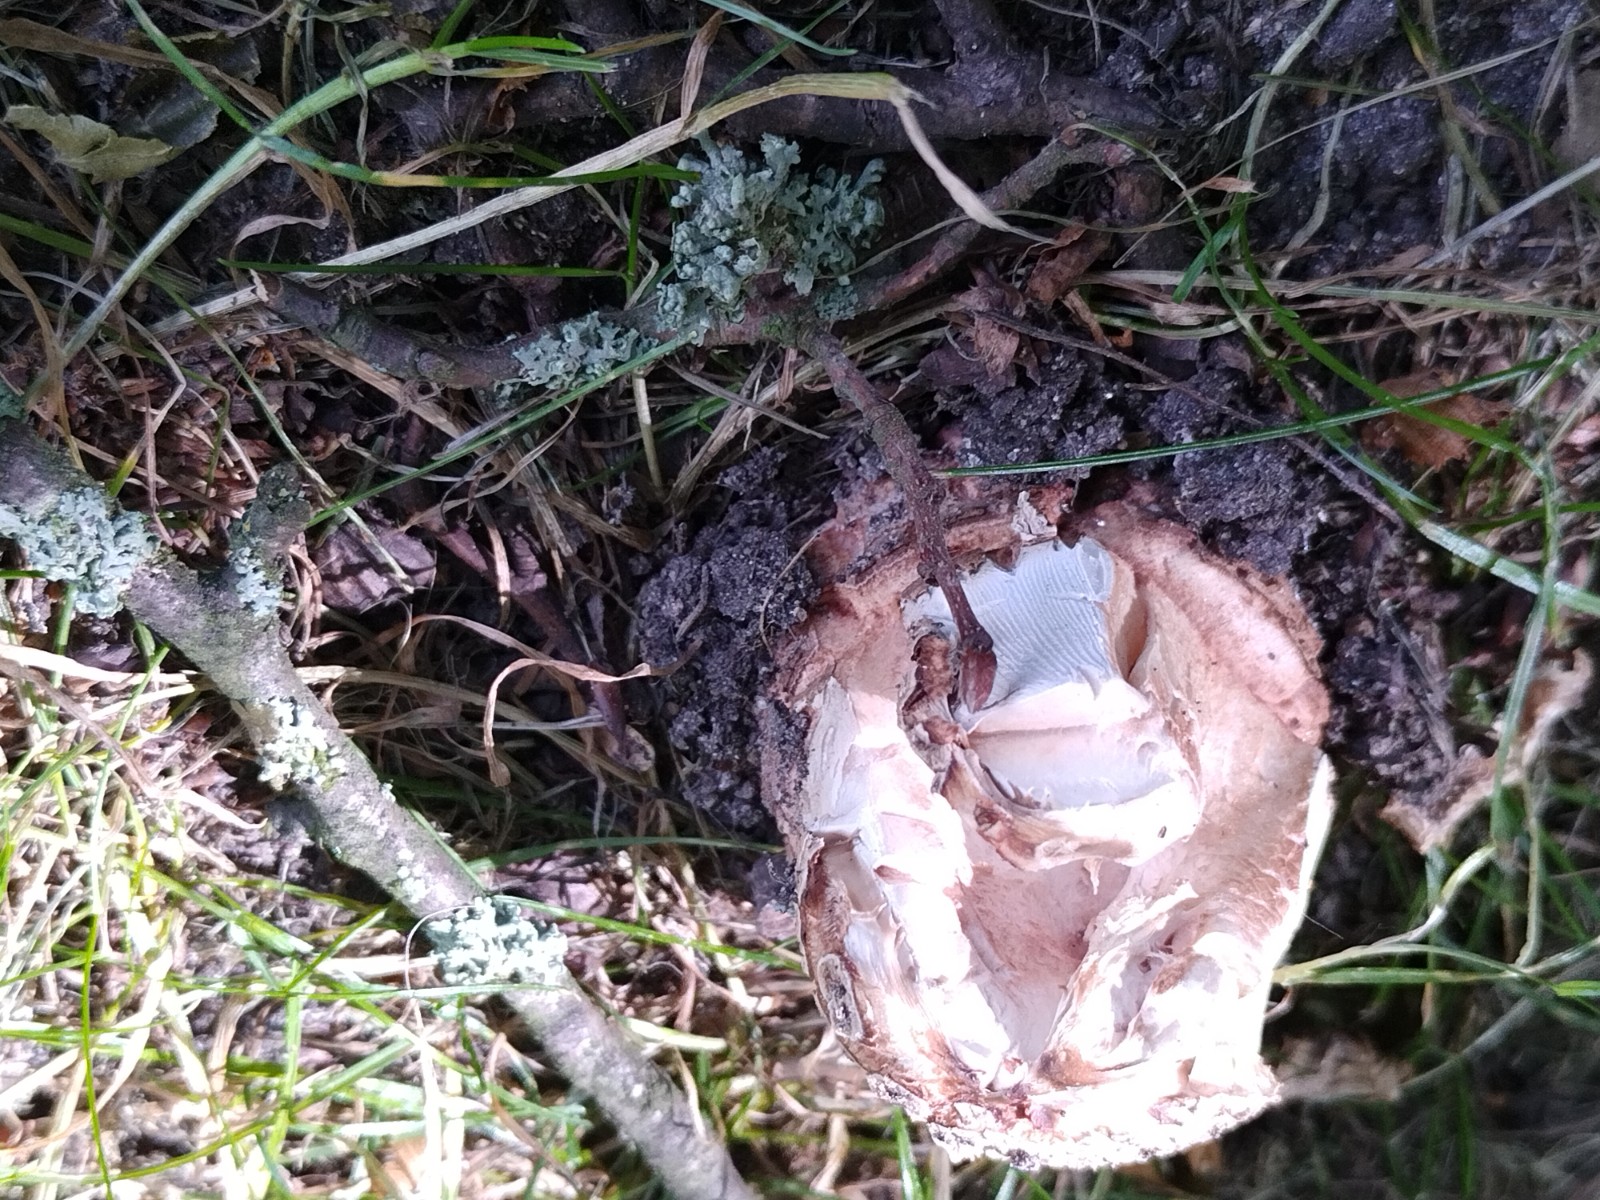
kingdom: Fungi
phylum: Basidiomycota
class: Agaricomycetes
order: Agaricales
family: Amanitaceae
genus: Amanita
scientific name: Amanita rubescens
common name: rødmende fluesvamp
